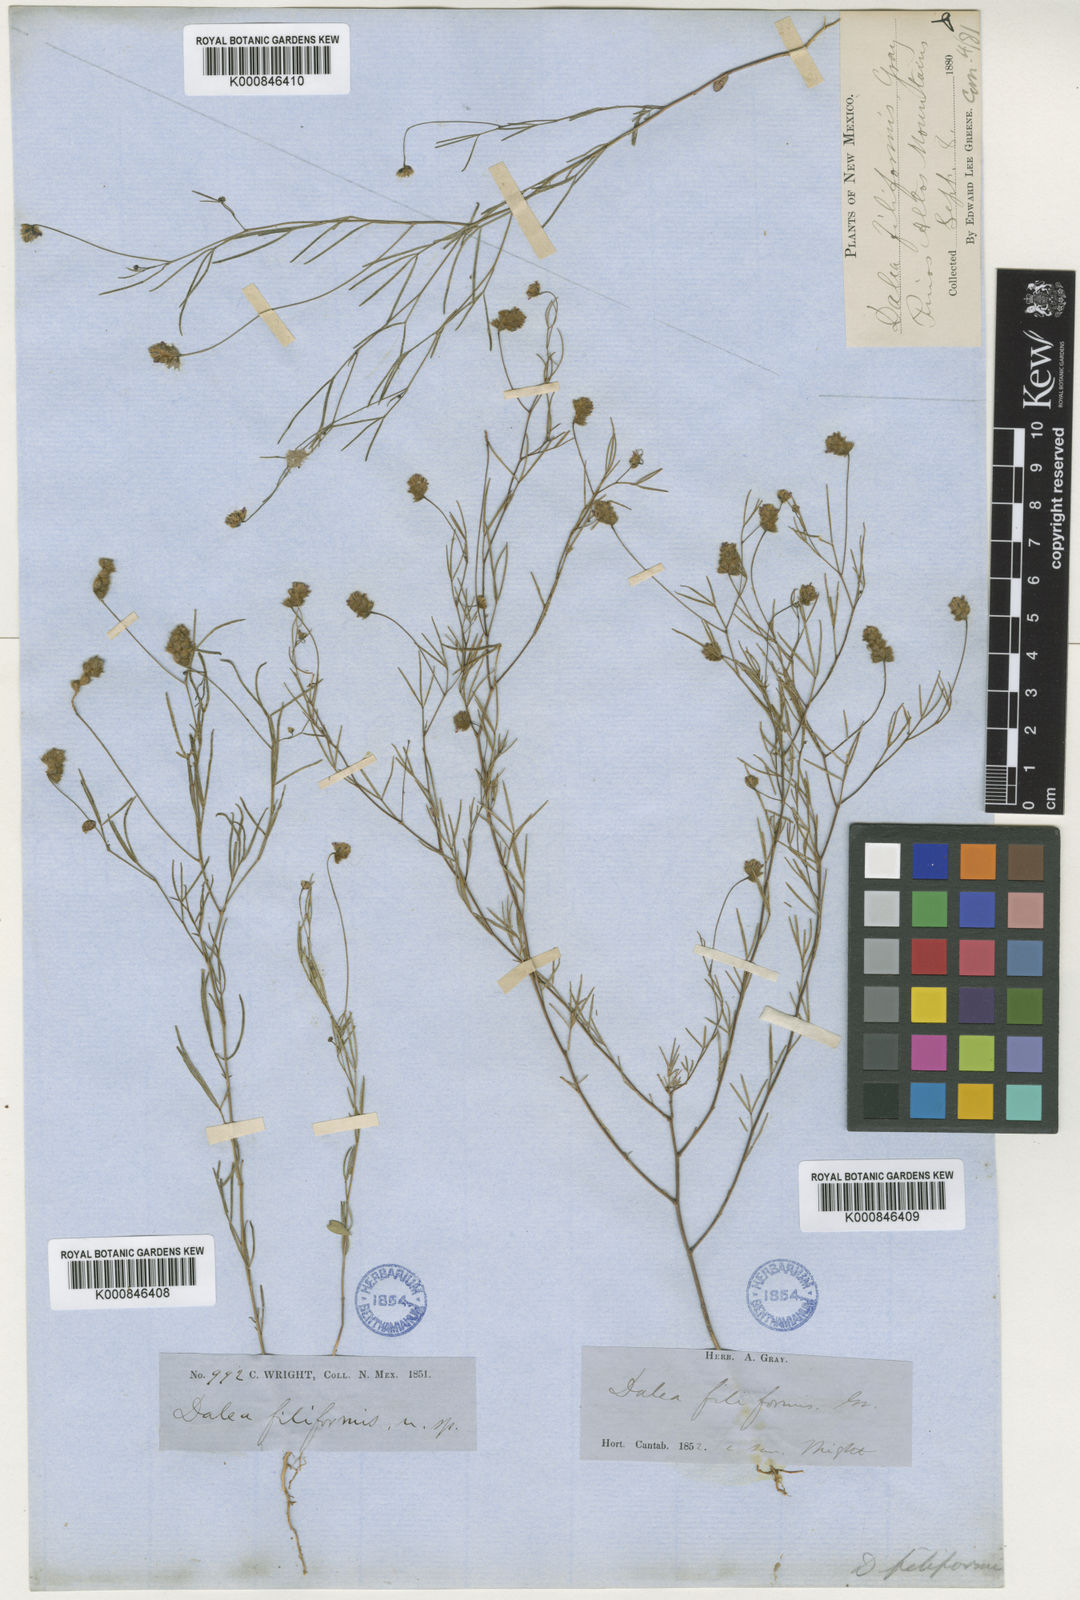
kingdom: Plantae
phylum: Tracheophyta
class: Magnoliopsida
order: Fabales
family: Fabaceae
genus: Dalea
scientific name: Dalea filiformis
